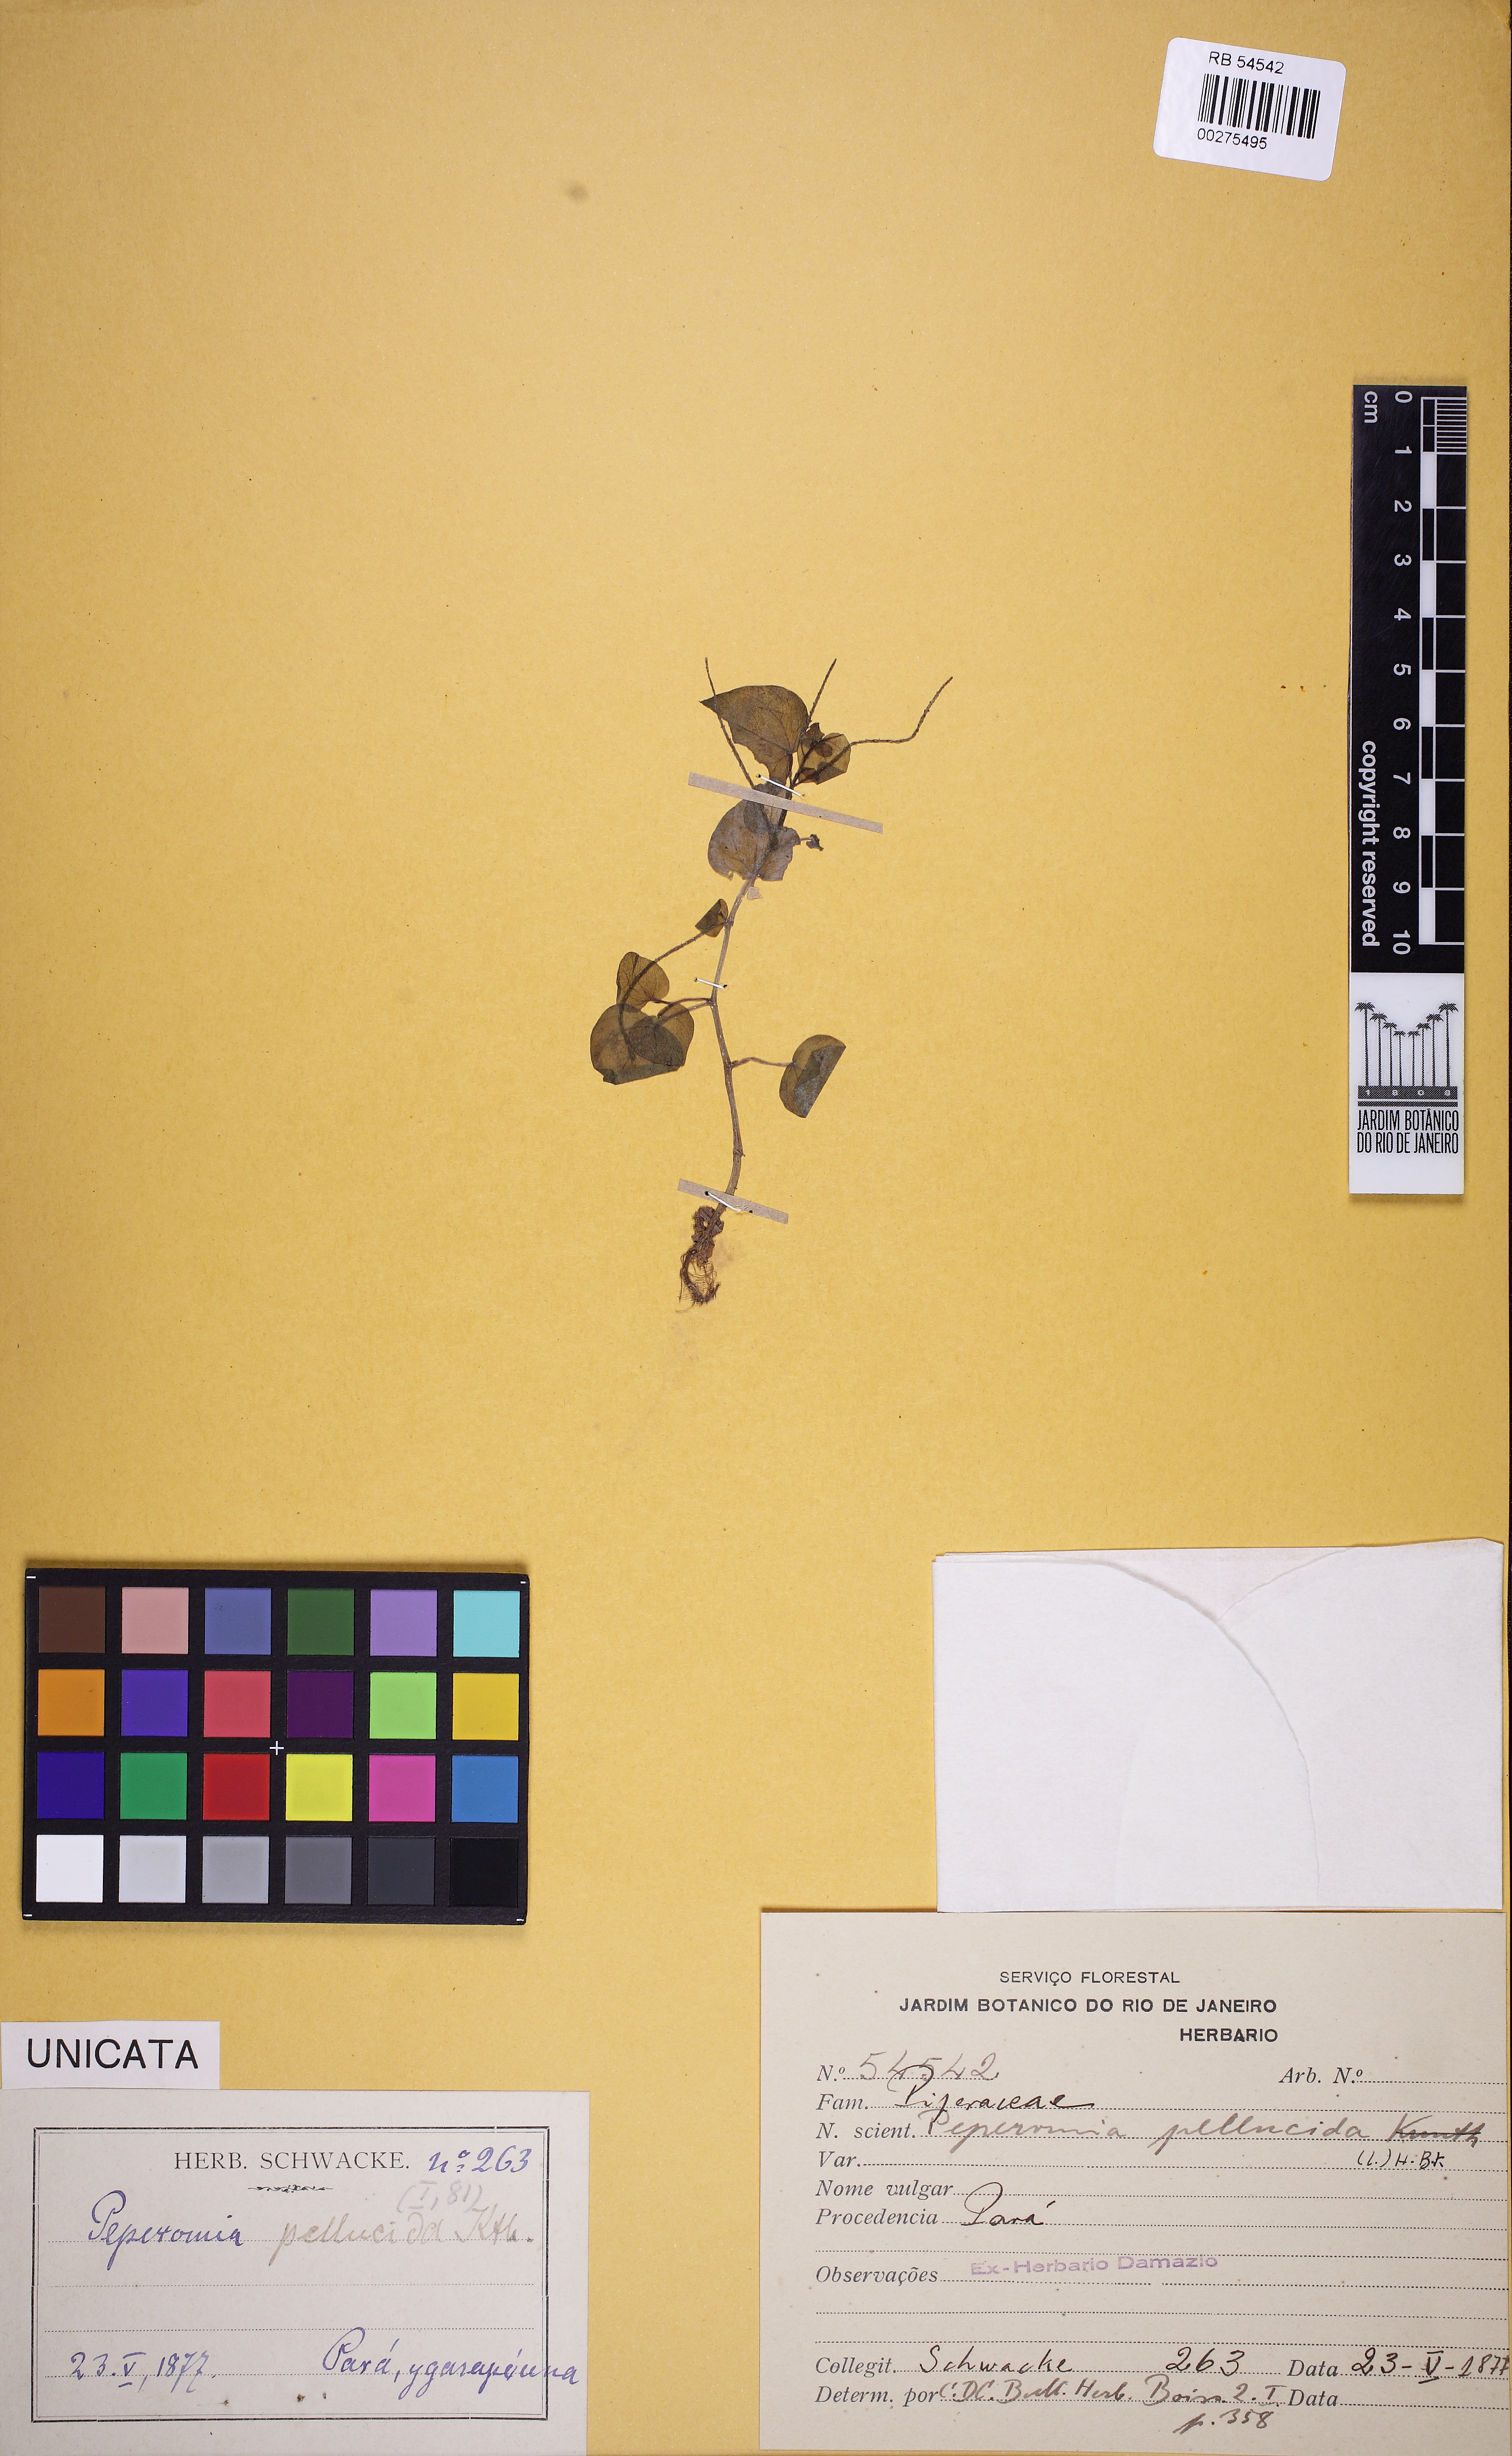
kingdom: Plantae
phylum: Tracheophyta
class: Magnoliopsida
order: Piperales
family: Piperaceae
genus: Peperomia
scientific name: Peperomia pellucida
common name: Man to man
